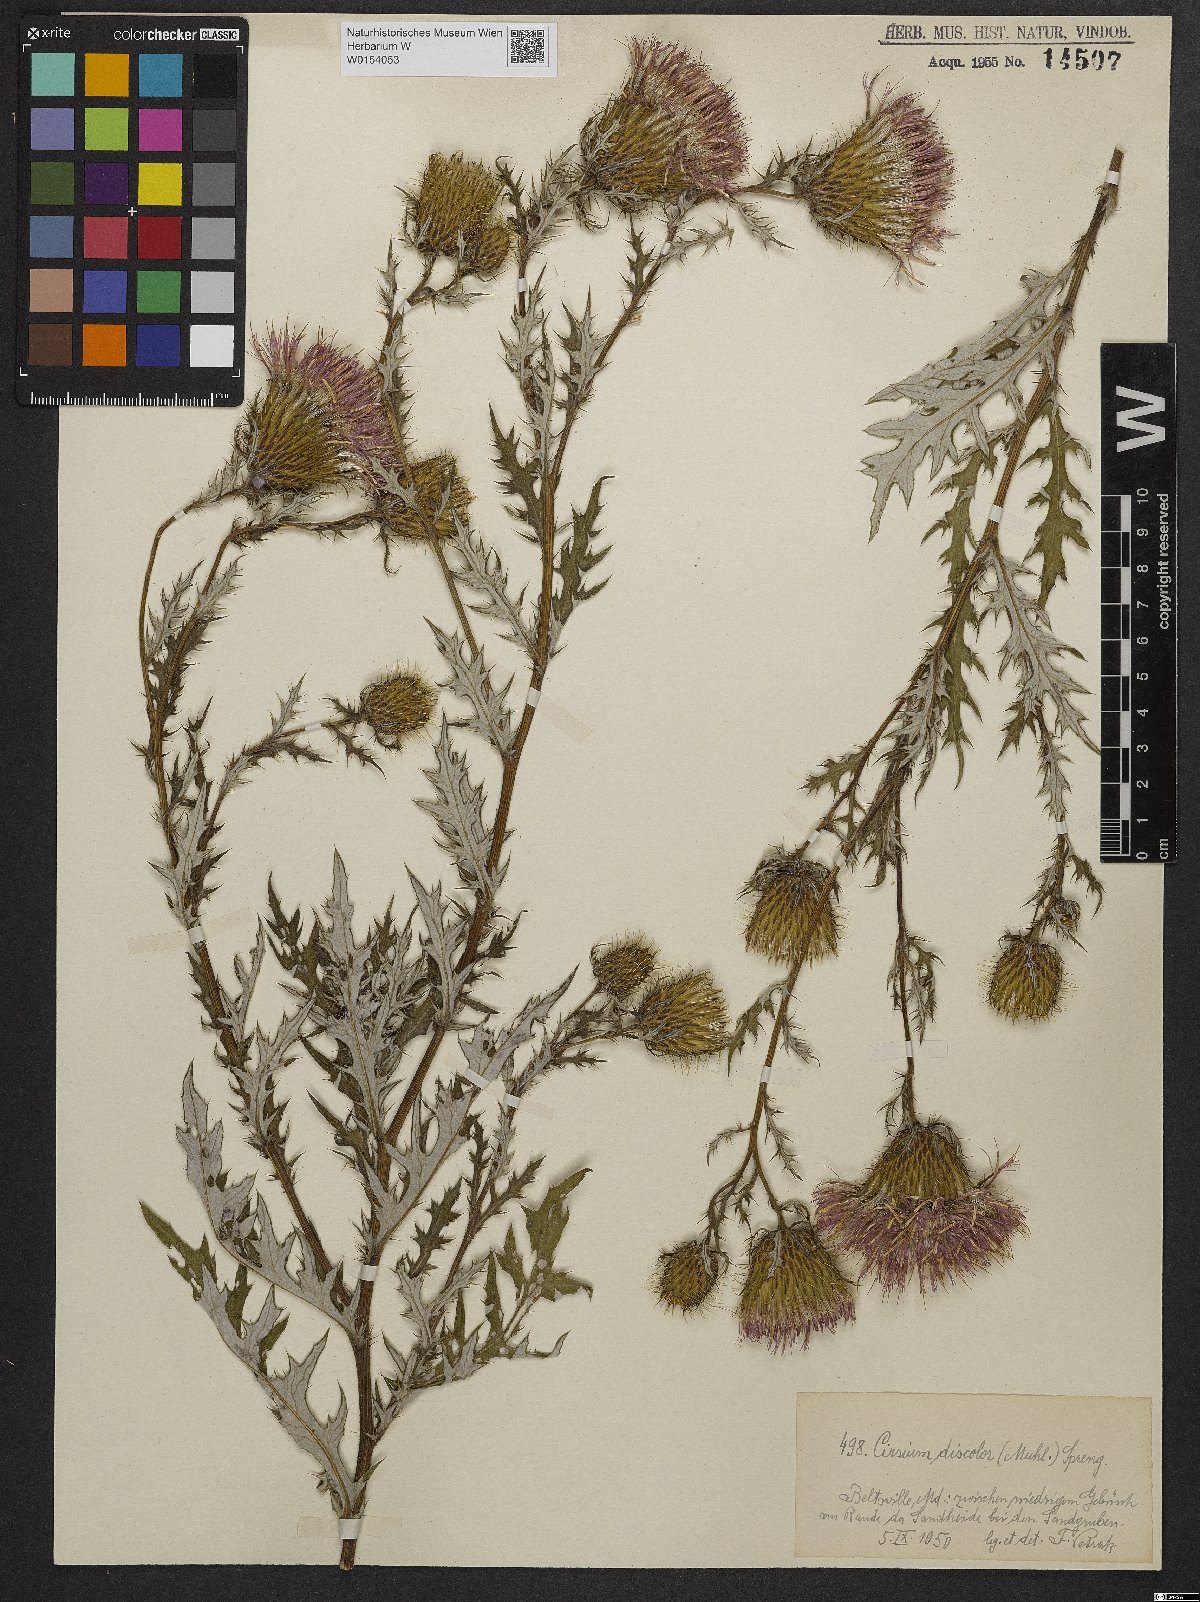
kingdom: Plantae
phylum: Tracheophyta
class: Magnoliopsida
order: Asterales
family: Asteraceae
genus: Lophiolepis
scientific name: Lophiolepis ciliata
